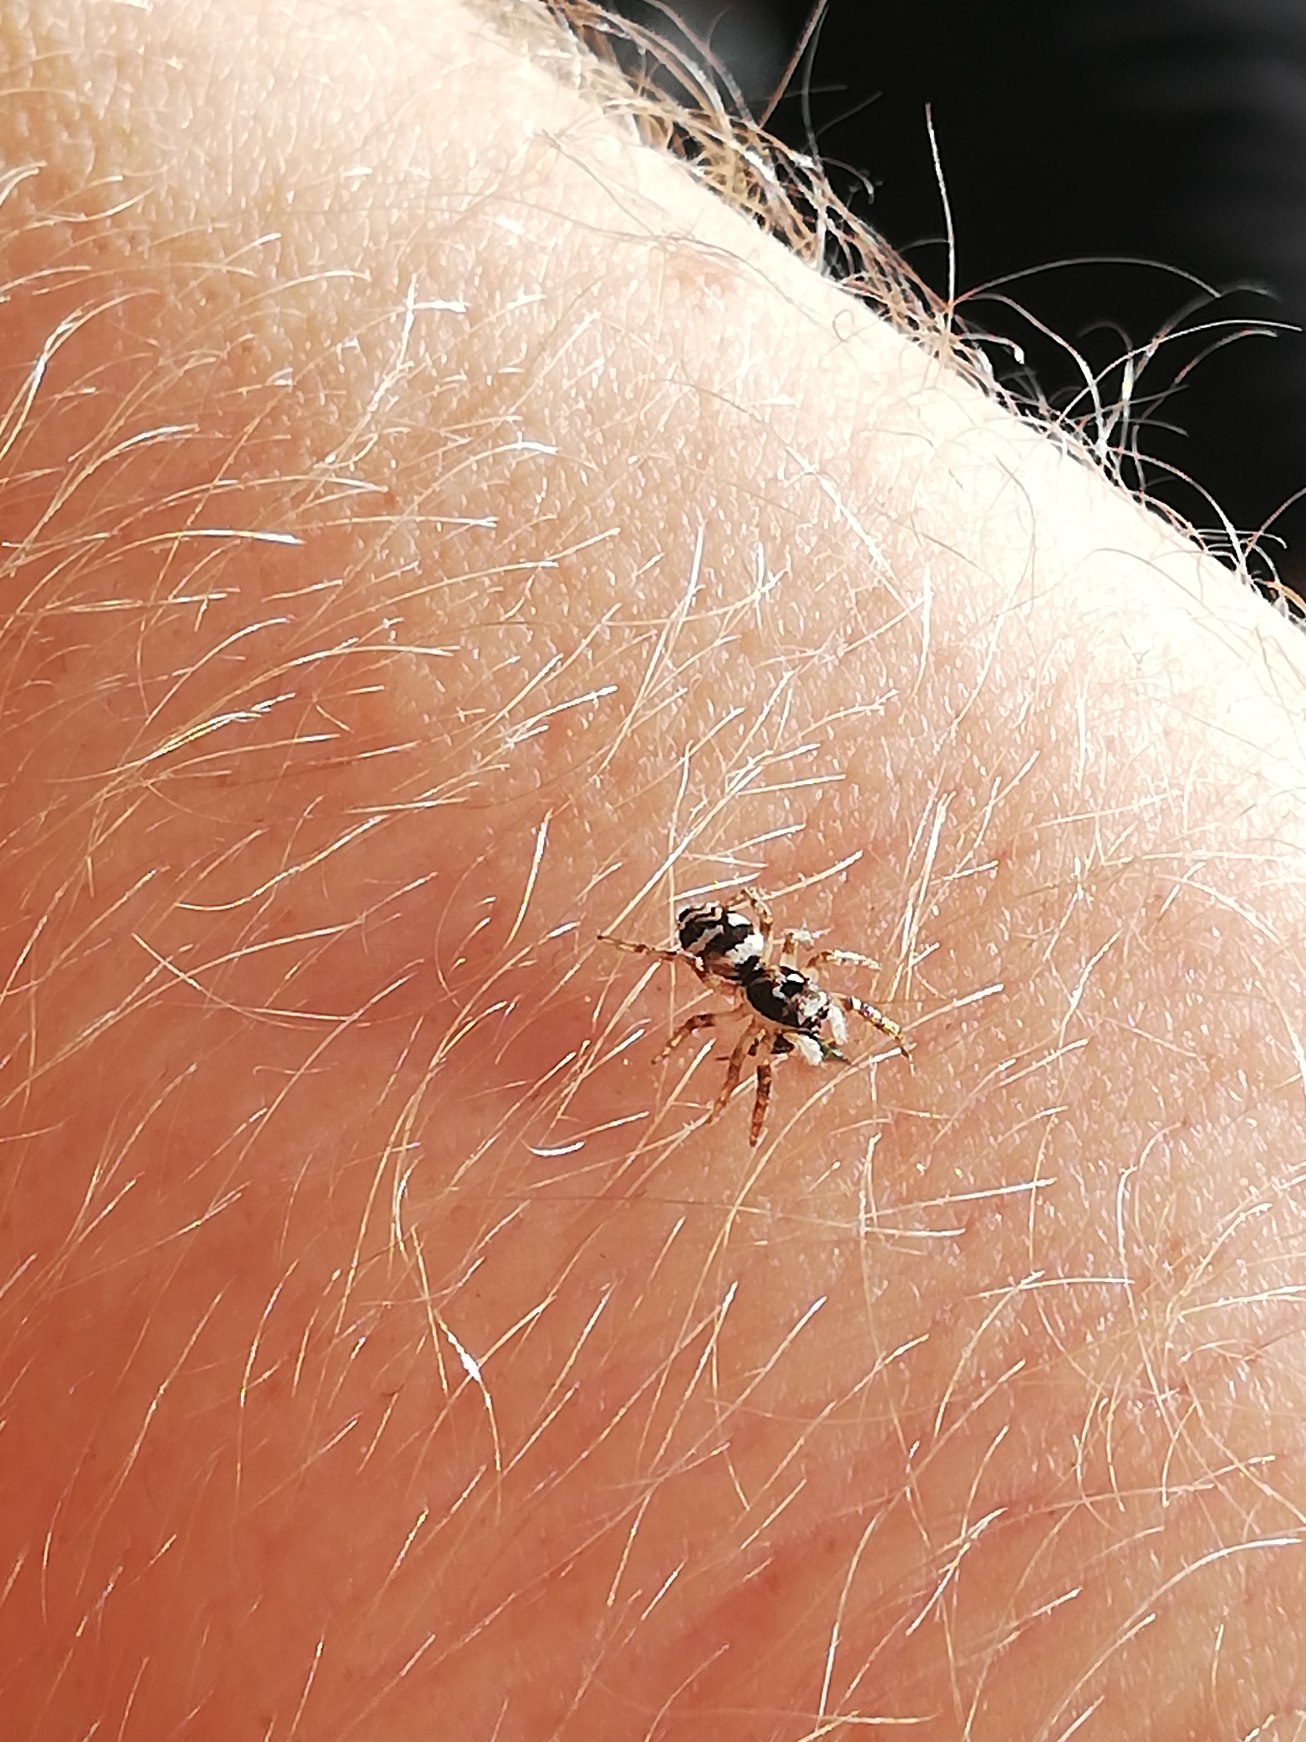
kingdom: Animalia
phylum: Arthropoda
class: Arachnida
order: Araneae
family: Salticidae
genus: Salticus
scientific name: Salticus scenicus
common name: Almindelig zebraedderkop
